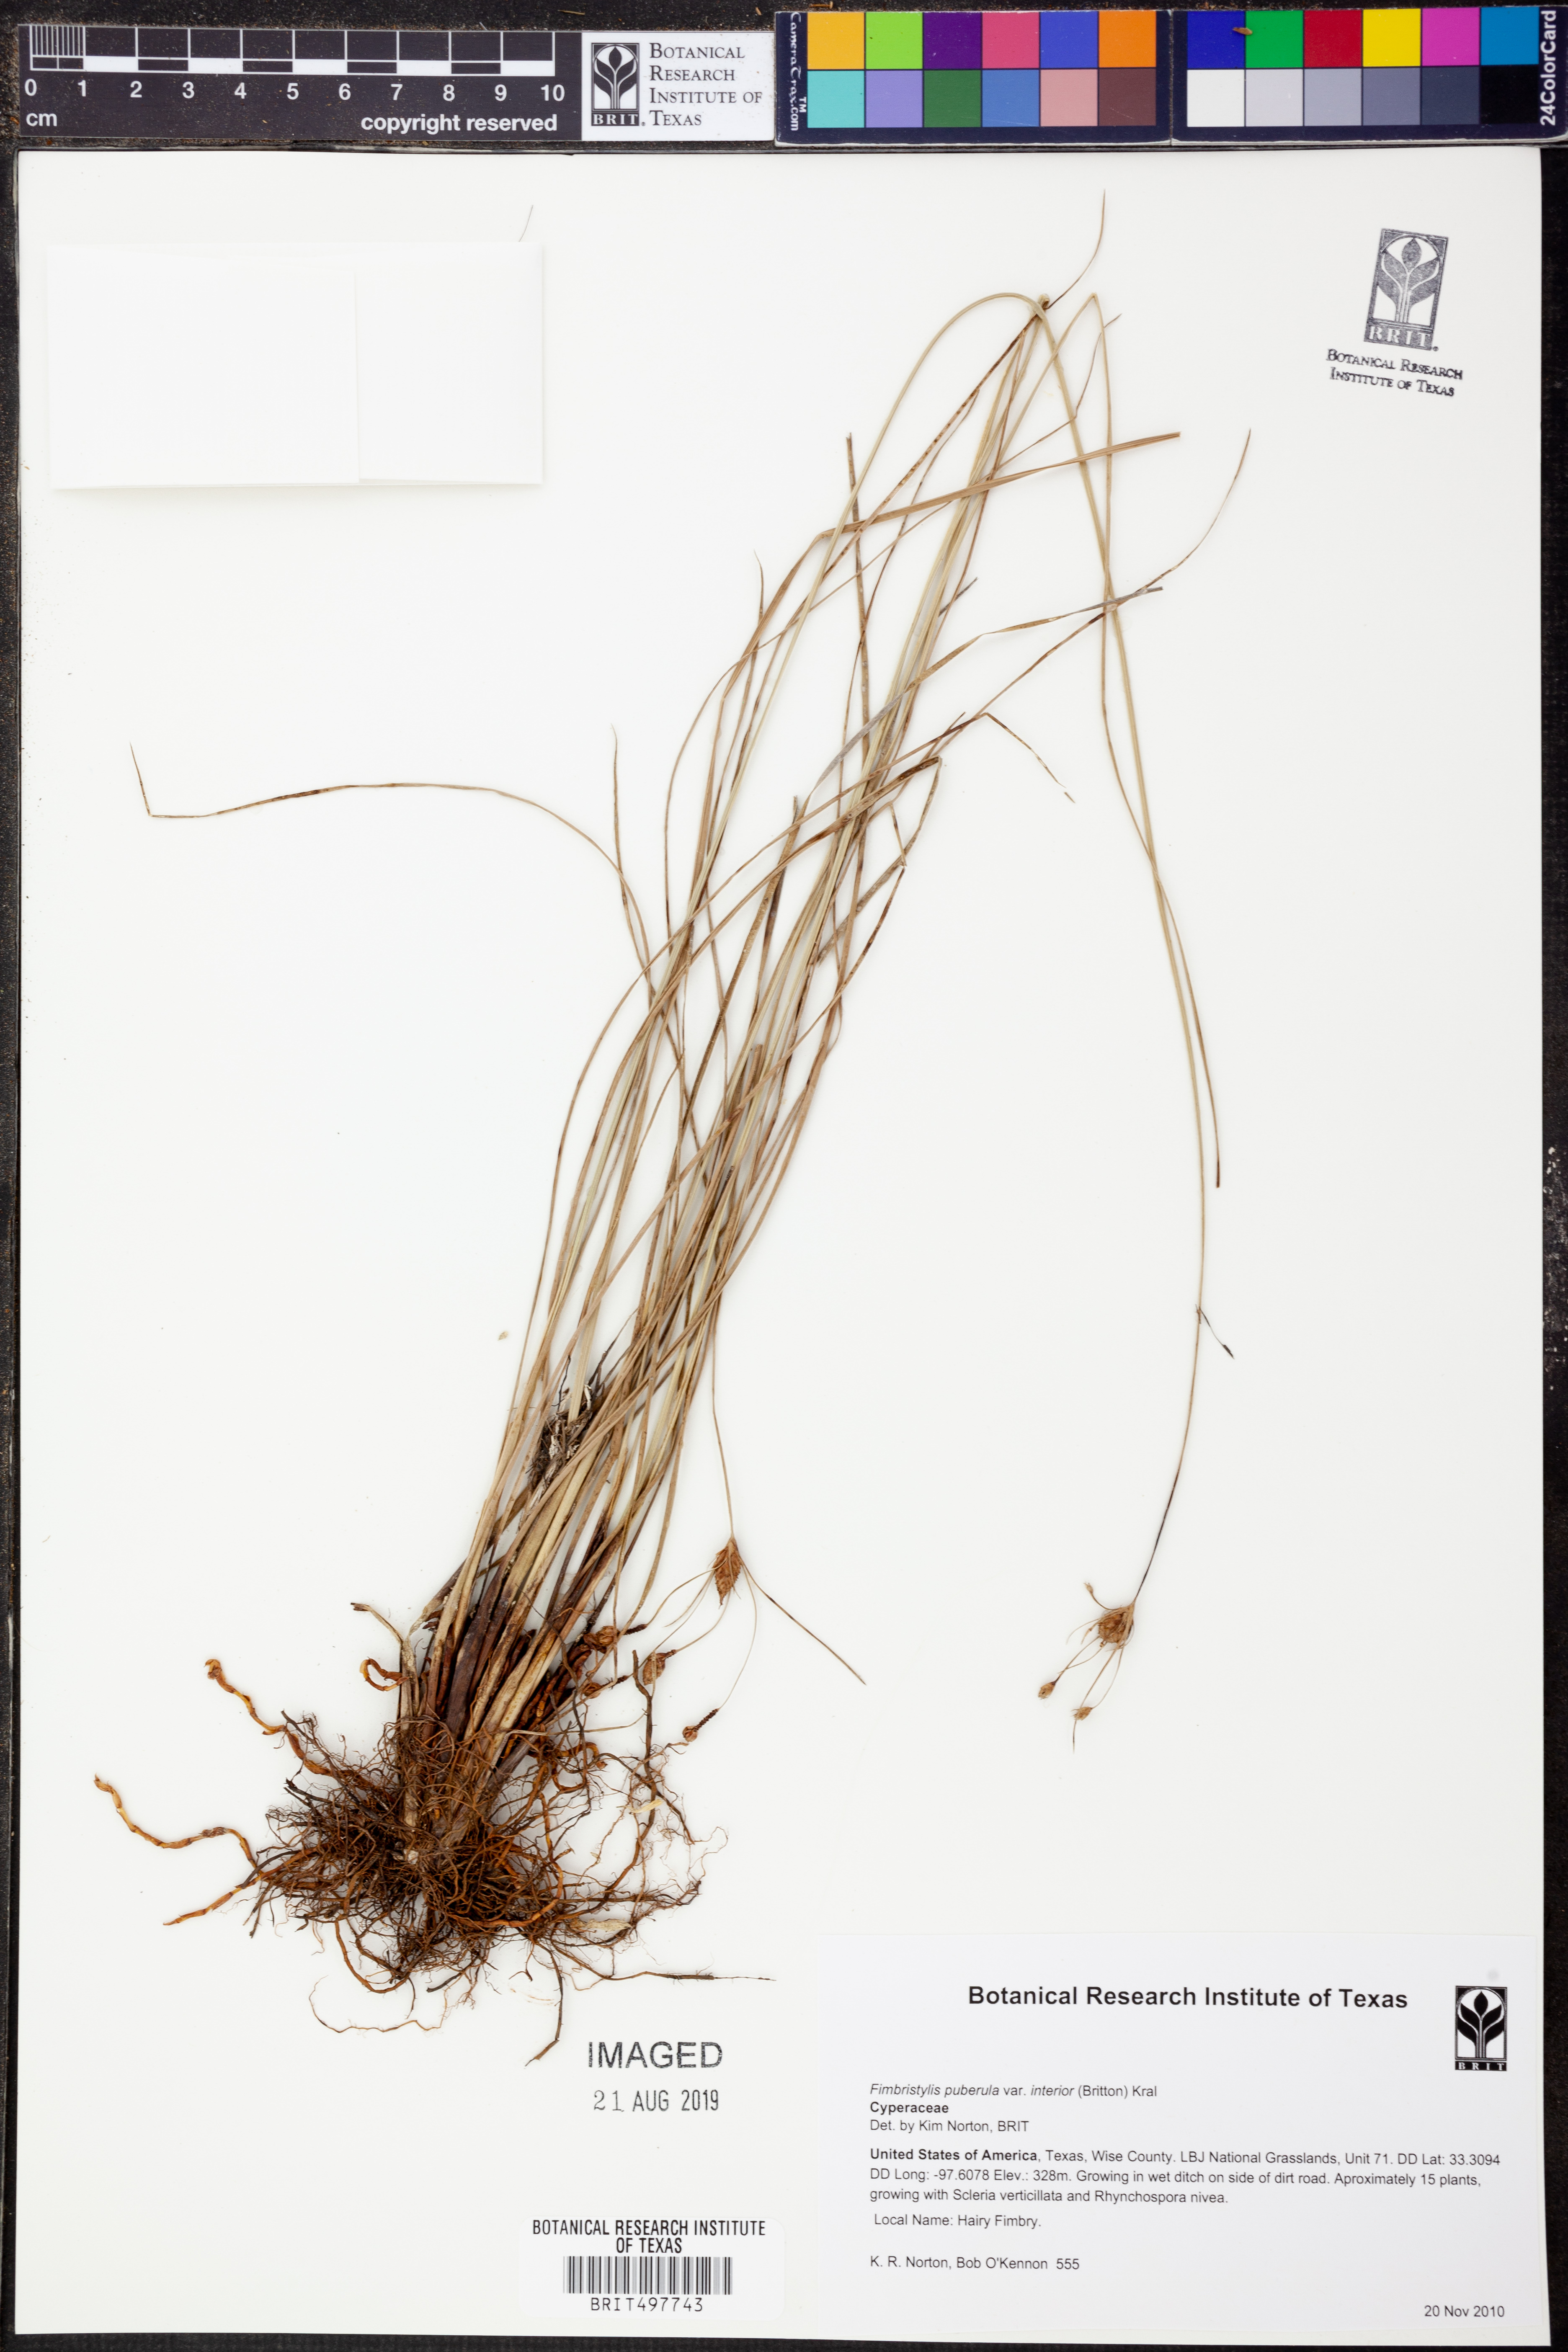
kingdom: Plantae
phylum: Tracheophyta
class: Liliopsida
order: Poales
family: Cyperaceae
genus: Fimbristylis
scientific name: Fimbristylis puberula
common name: Hairy fimbristylis
